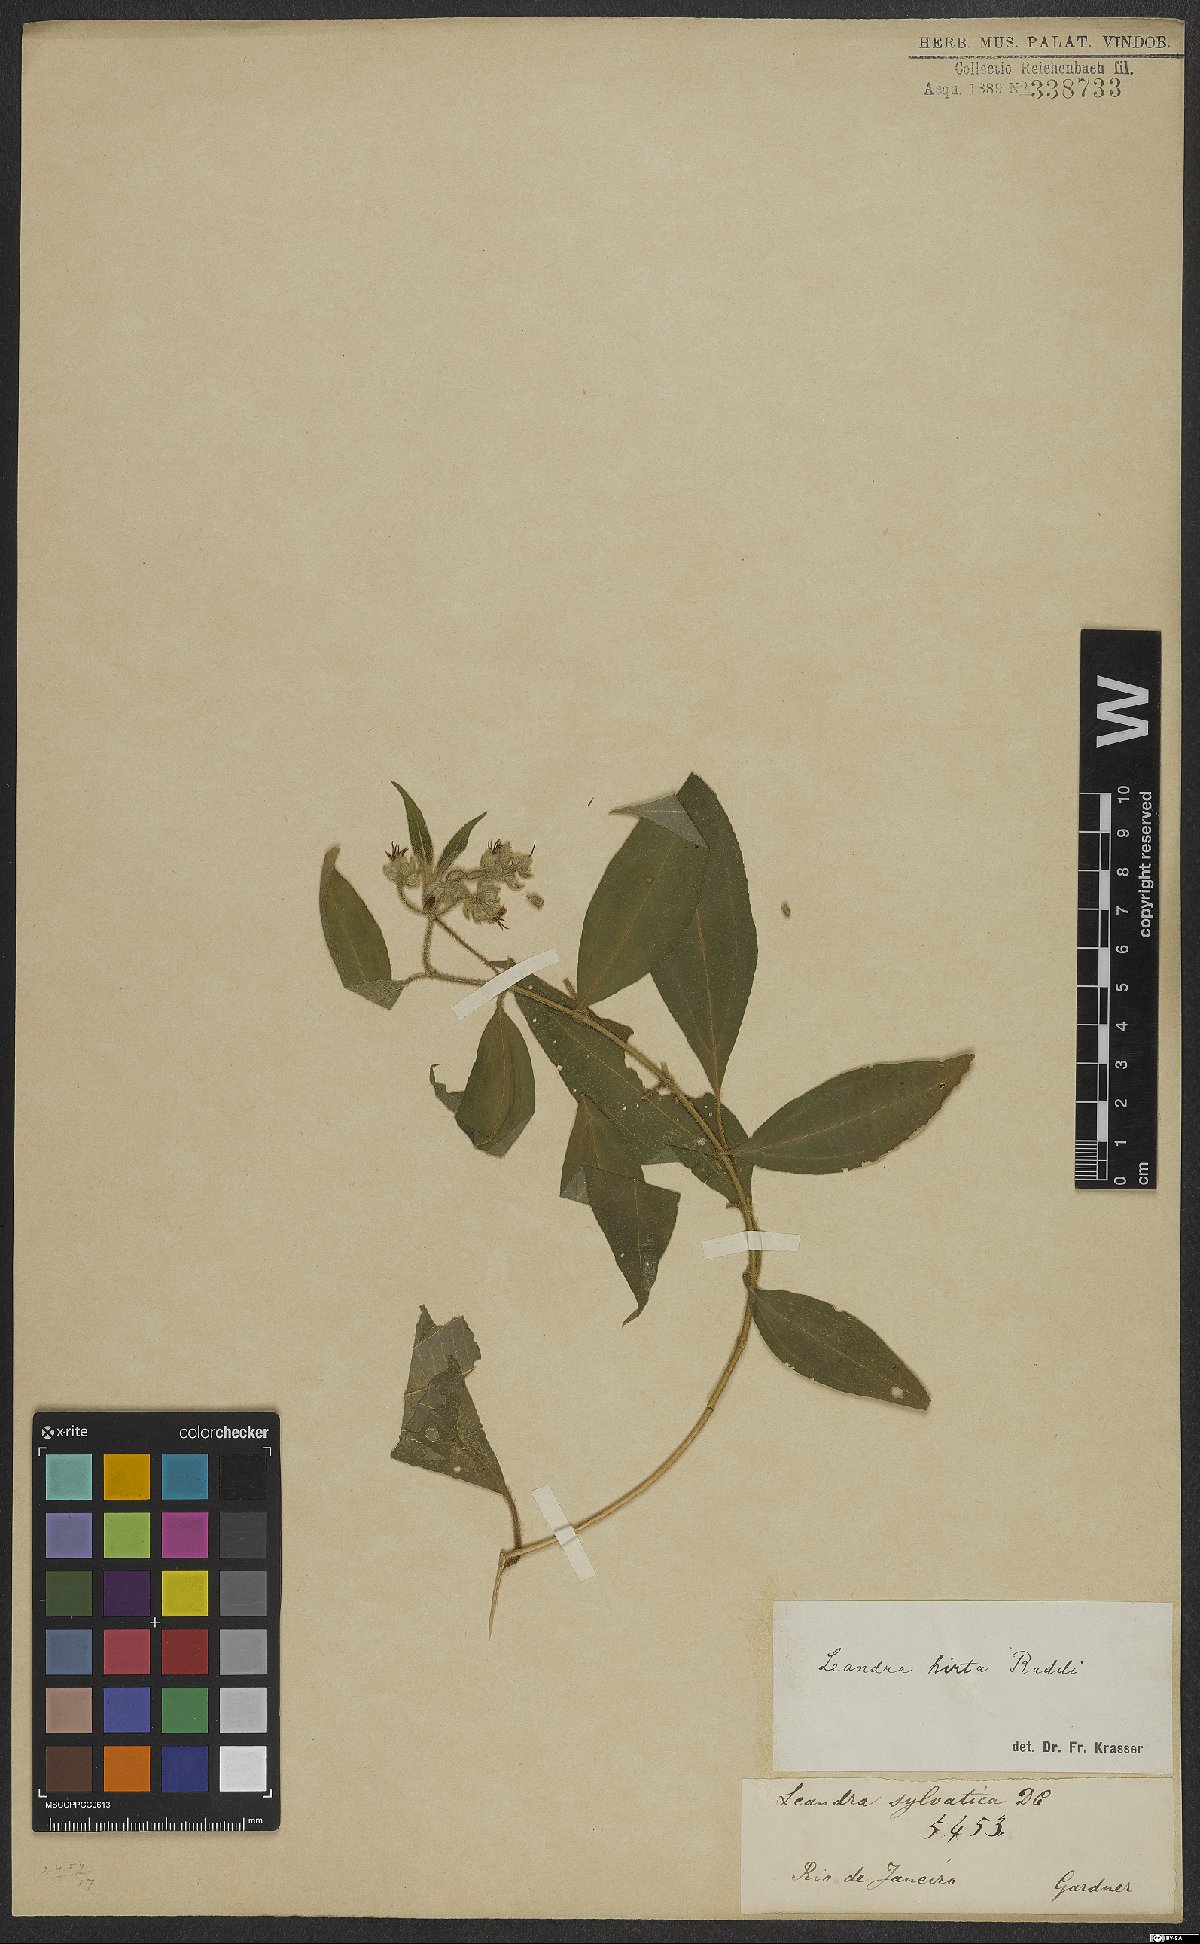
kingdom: Plantae
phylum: Tracheophyta
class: Magnoliopsida
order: Myrtales
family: Melastomataceae
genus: Miconia
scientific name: Miconia dubia
